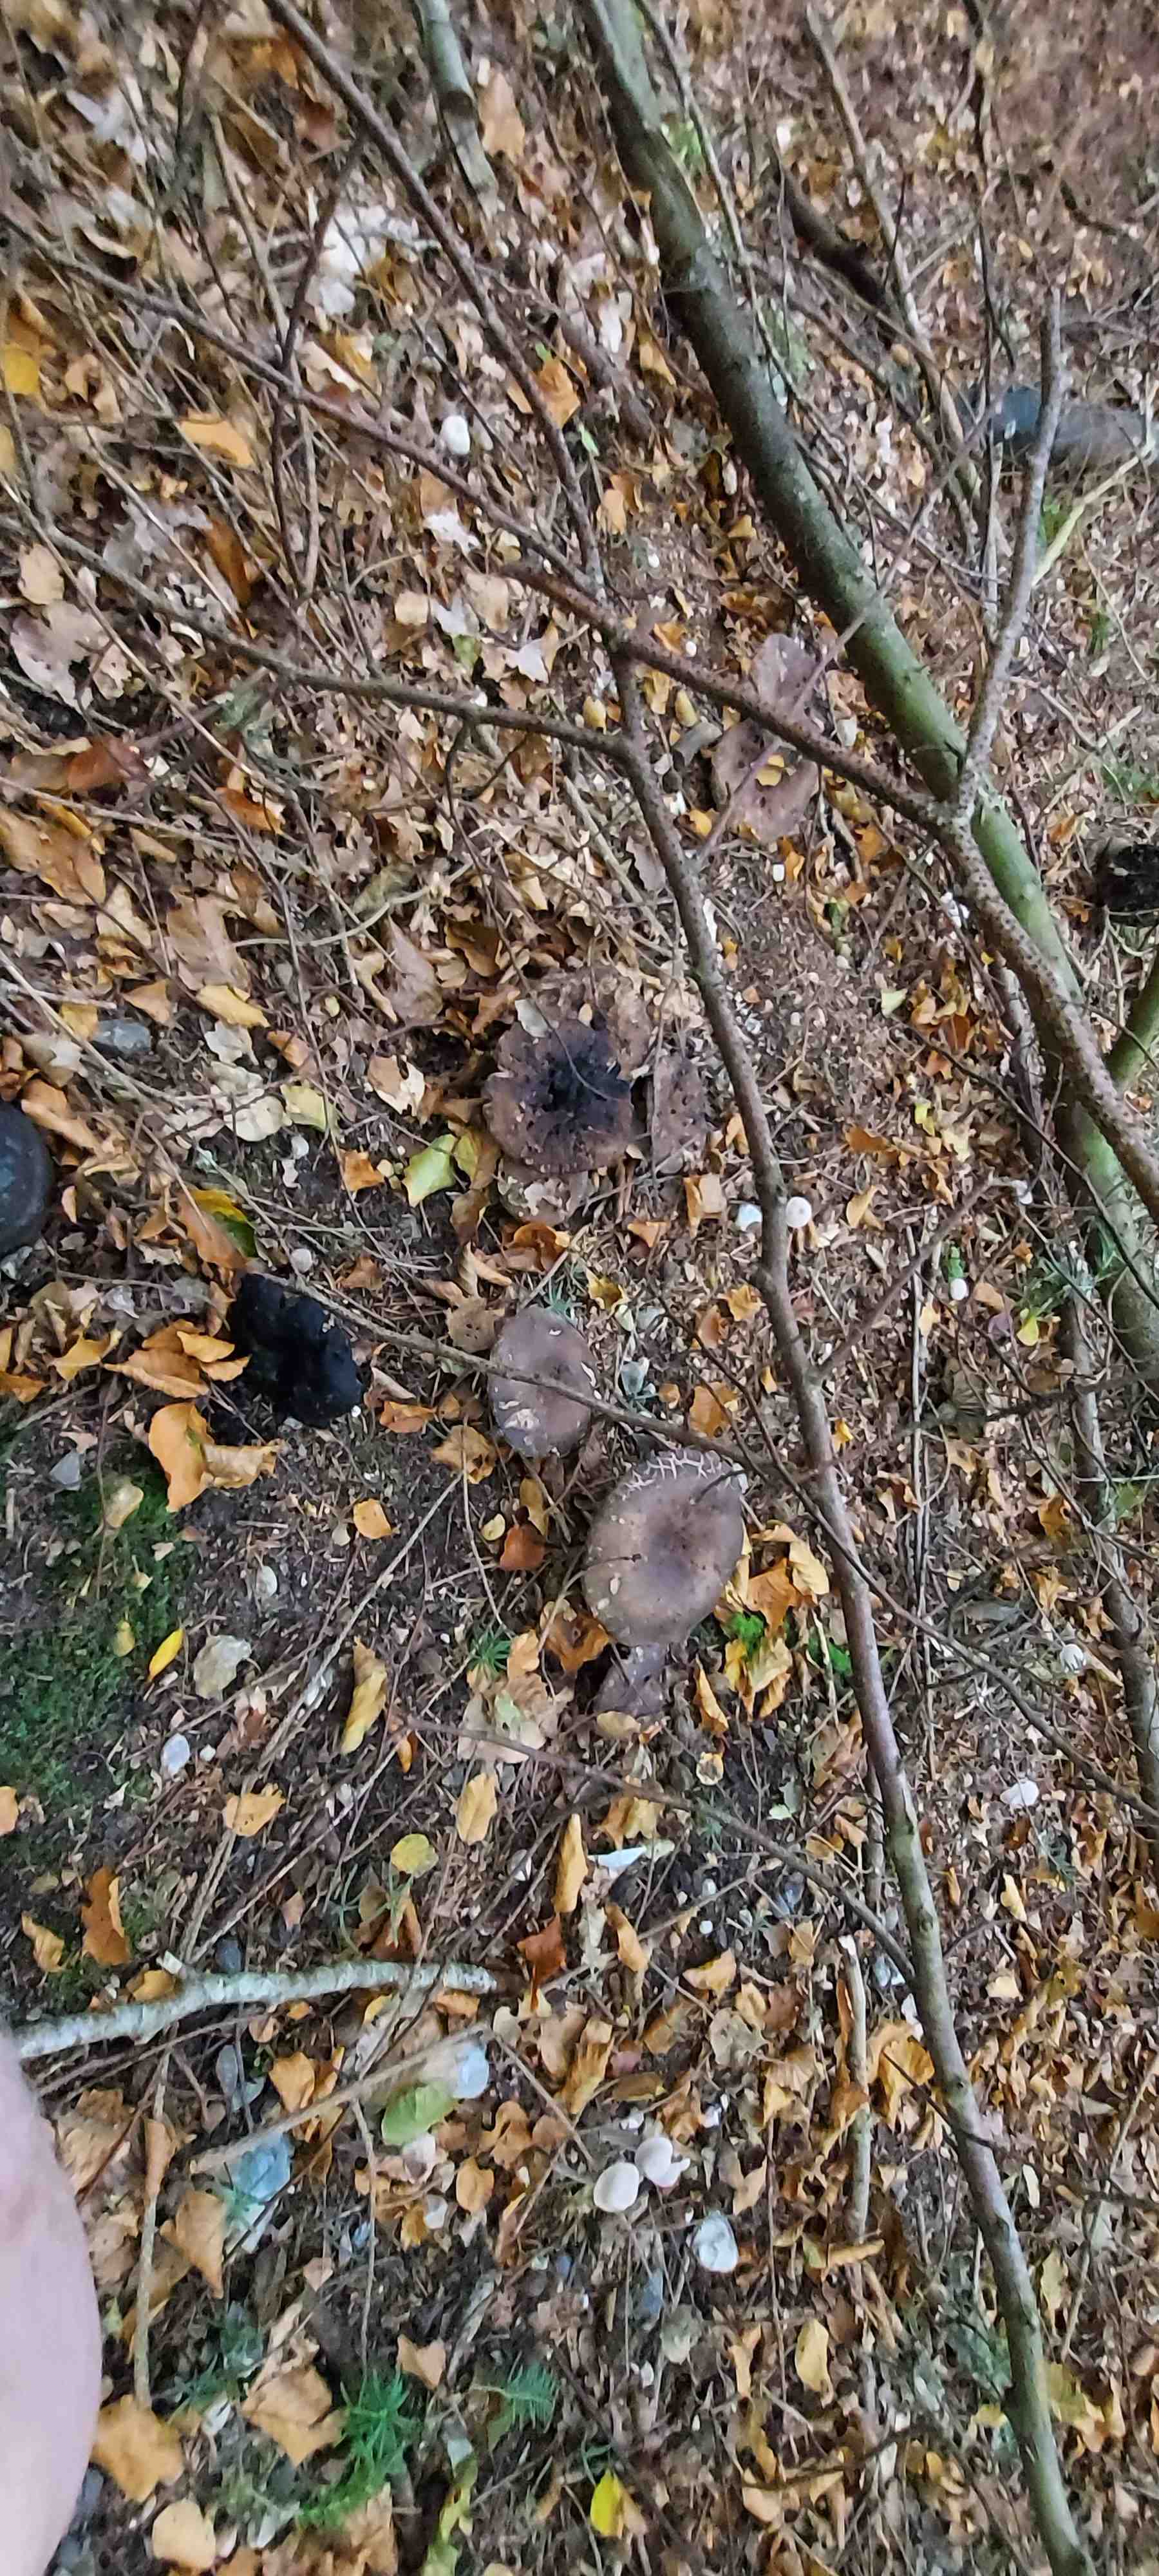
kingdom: Fungi
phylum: Basidiomycota
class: Agaricomycetes
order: Russulales
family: Russulaceae
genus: Russula
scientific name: Russula adusta
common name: sværtende skørhat
